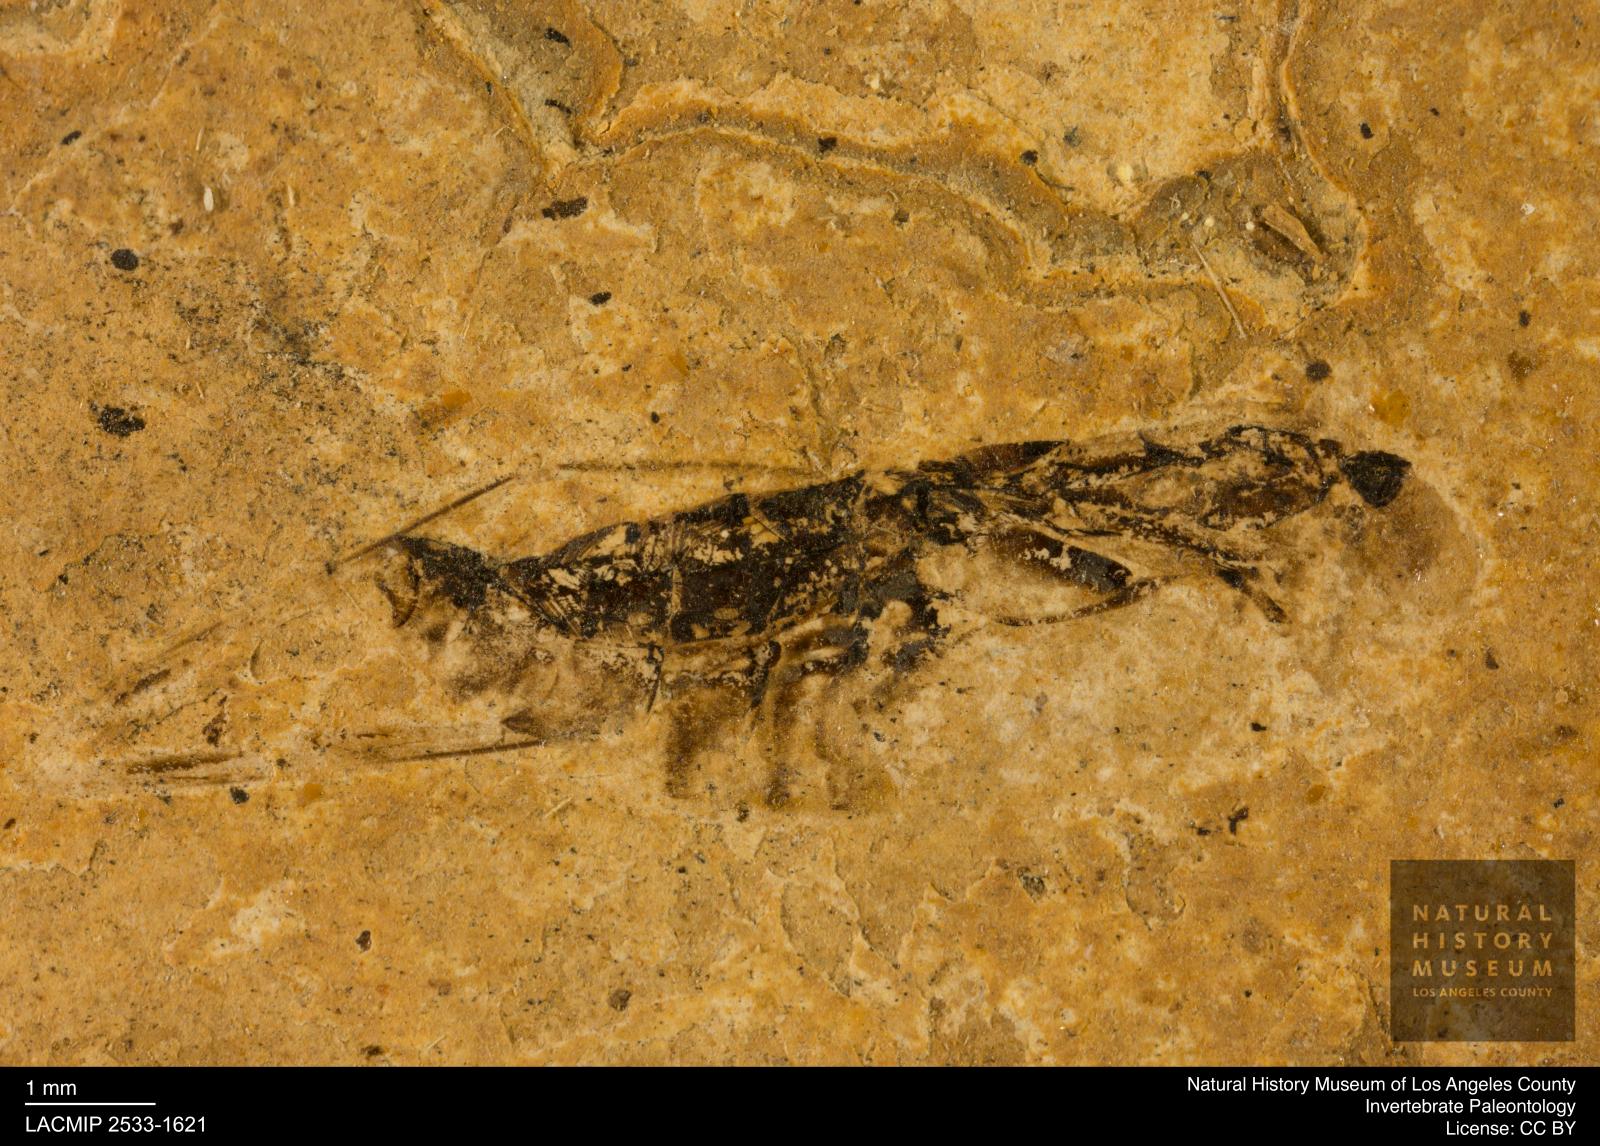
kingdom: Animalia
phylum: Arthropoda
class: Insecta
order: Hemiptera
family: Notonectidae
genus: Notonecta
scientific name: Notonecta
